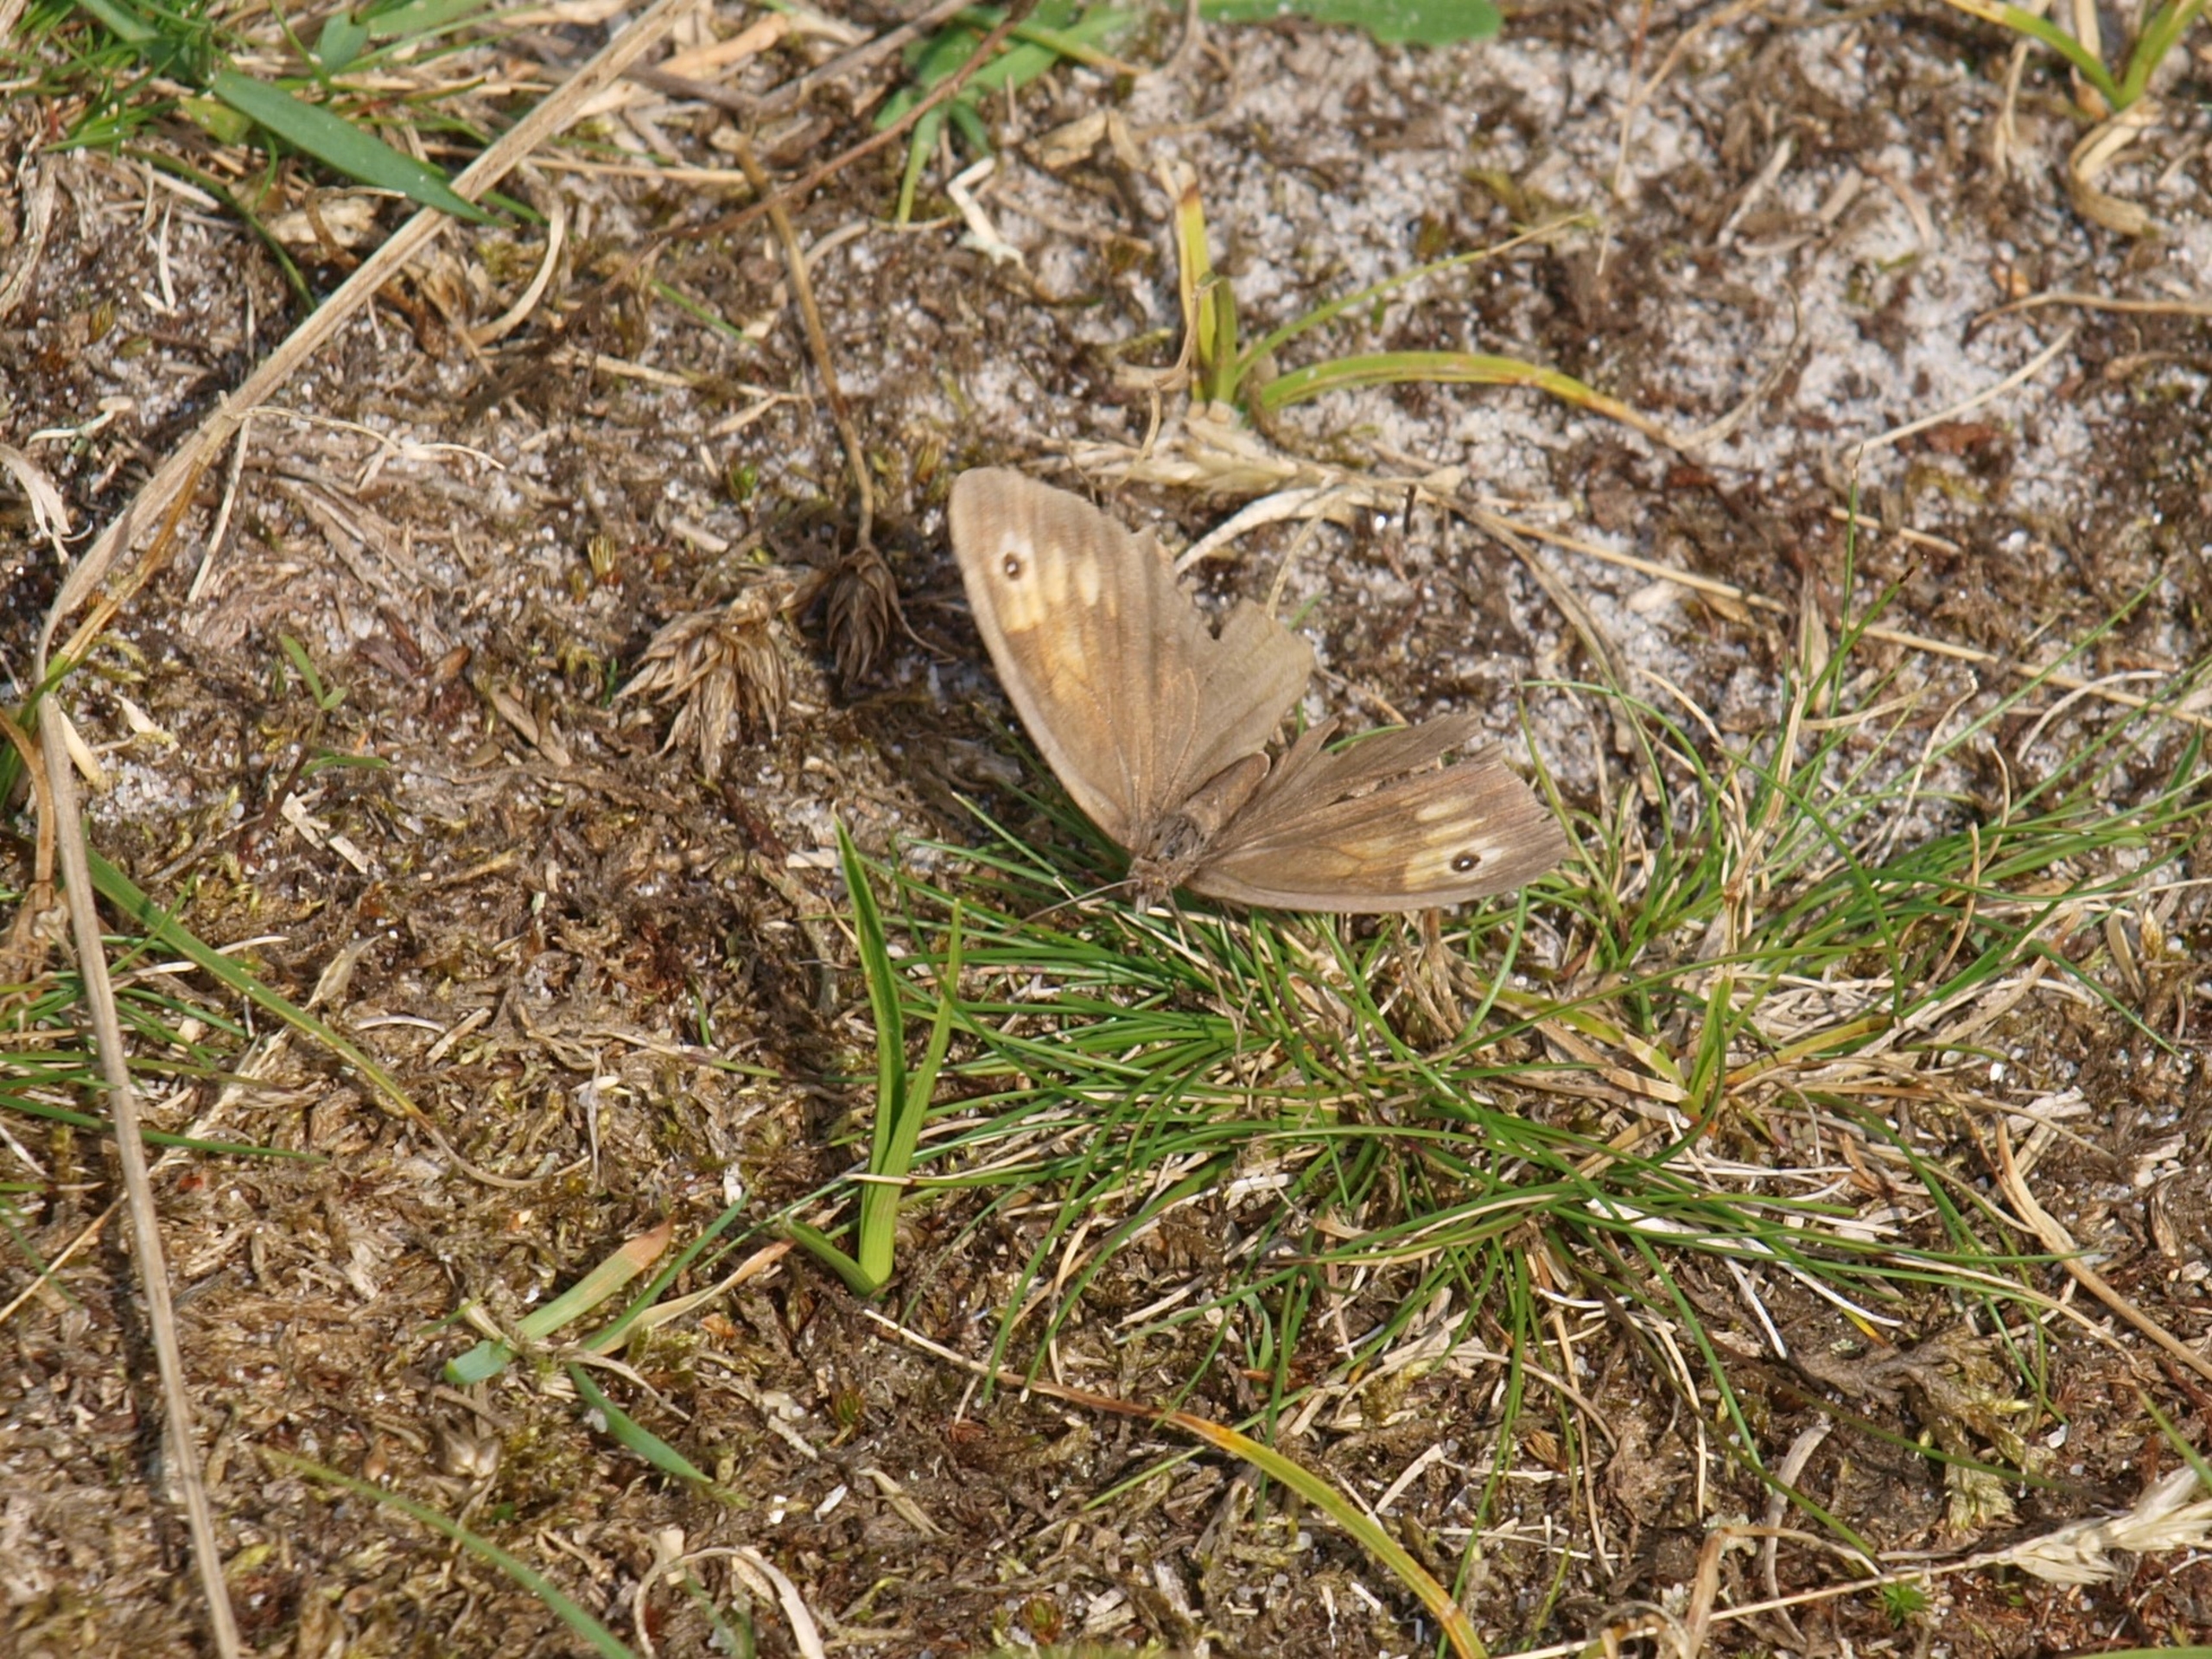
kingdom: Animalia
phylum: Arthropoda
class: Insecta
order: Lepidoptera
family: Nymphalidae
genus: Maniola
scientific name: Maniola jurtina
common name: Græsrandøje
